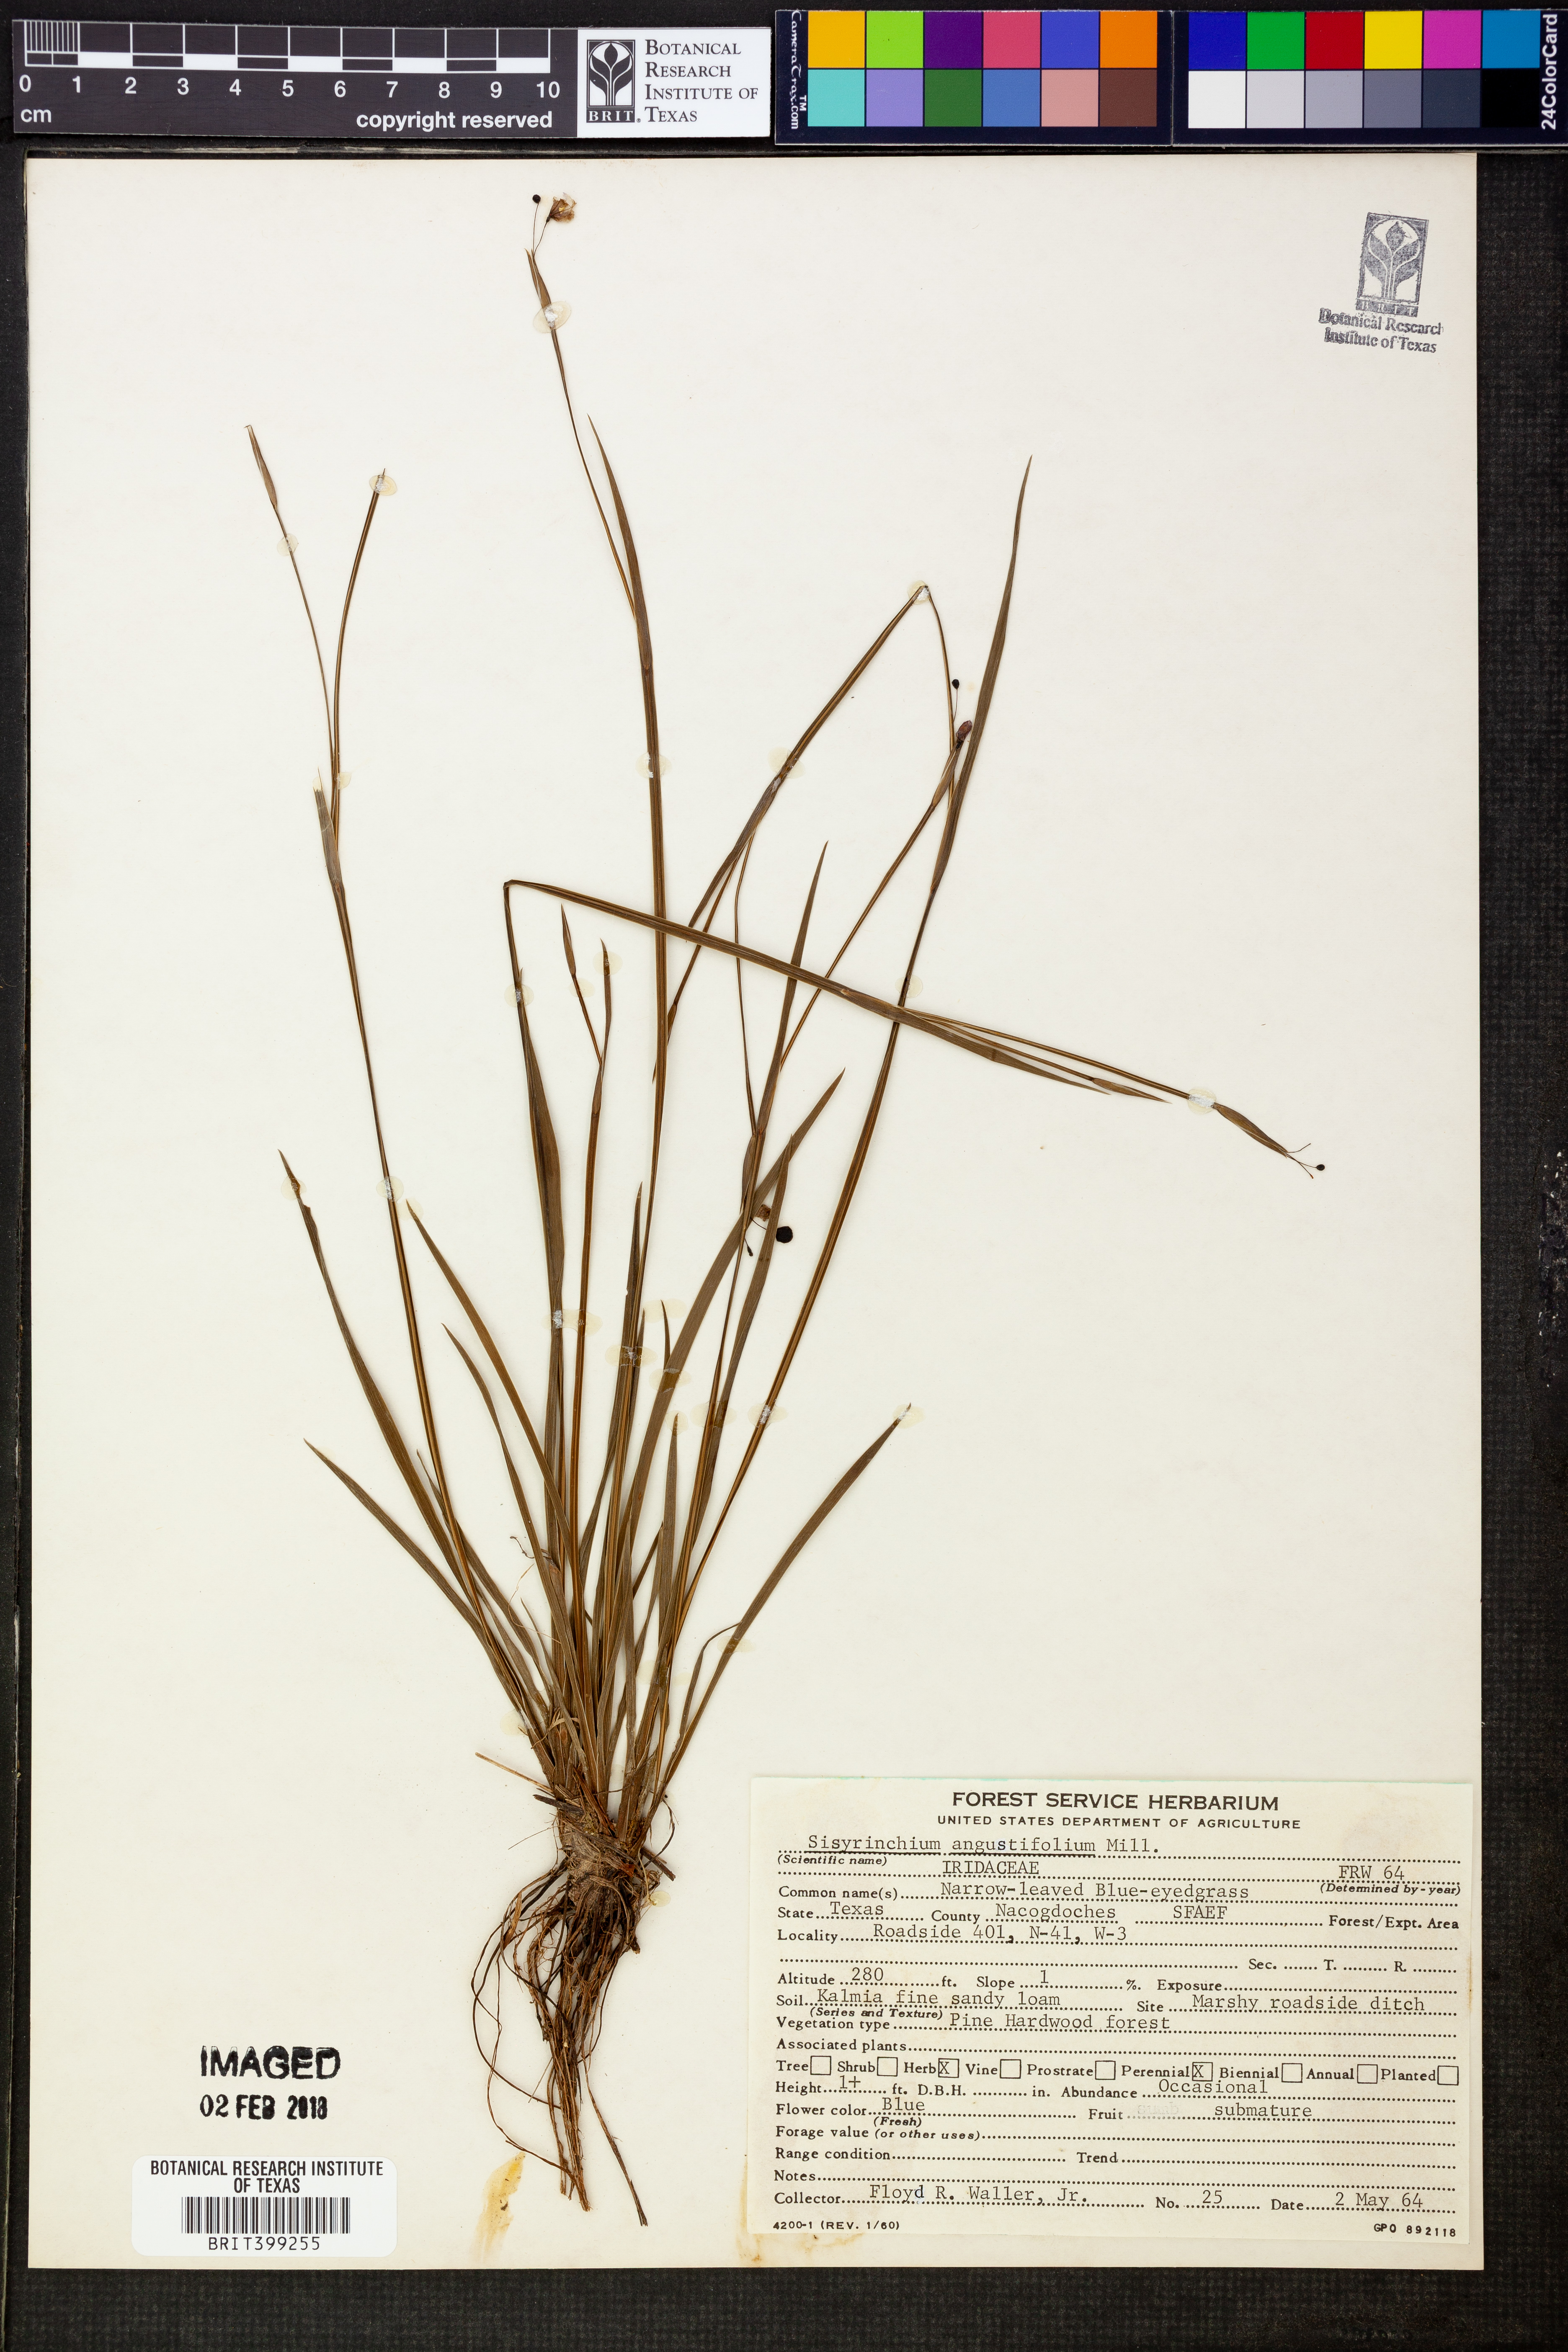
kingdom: Plantae
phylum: Tracheophyta
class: Liliopsida
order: Asparagales
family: Iridaceae
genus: Sisyrinchium
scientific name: Sisyrinchium angustifolium
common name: Narrow-leaf blue-eyed-grass
